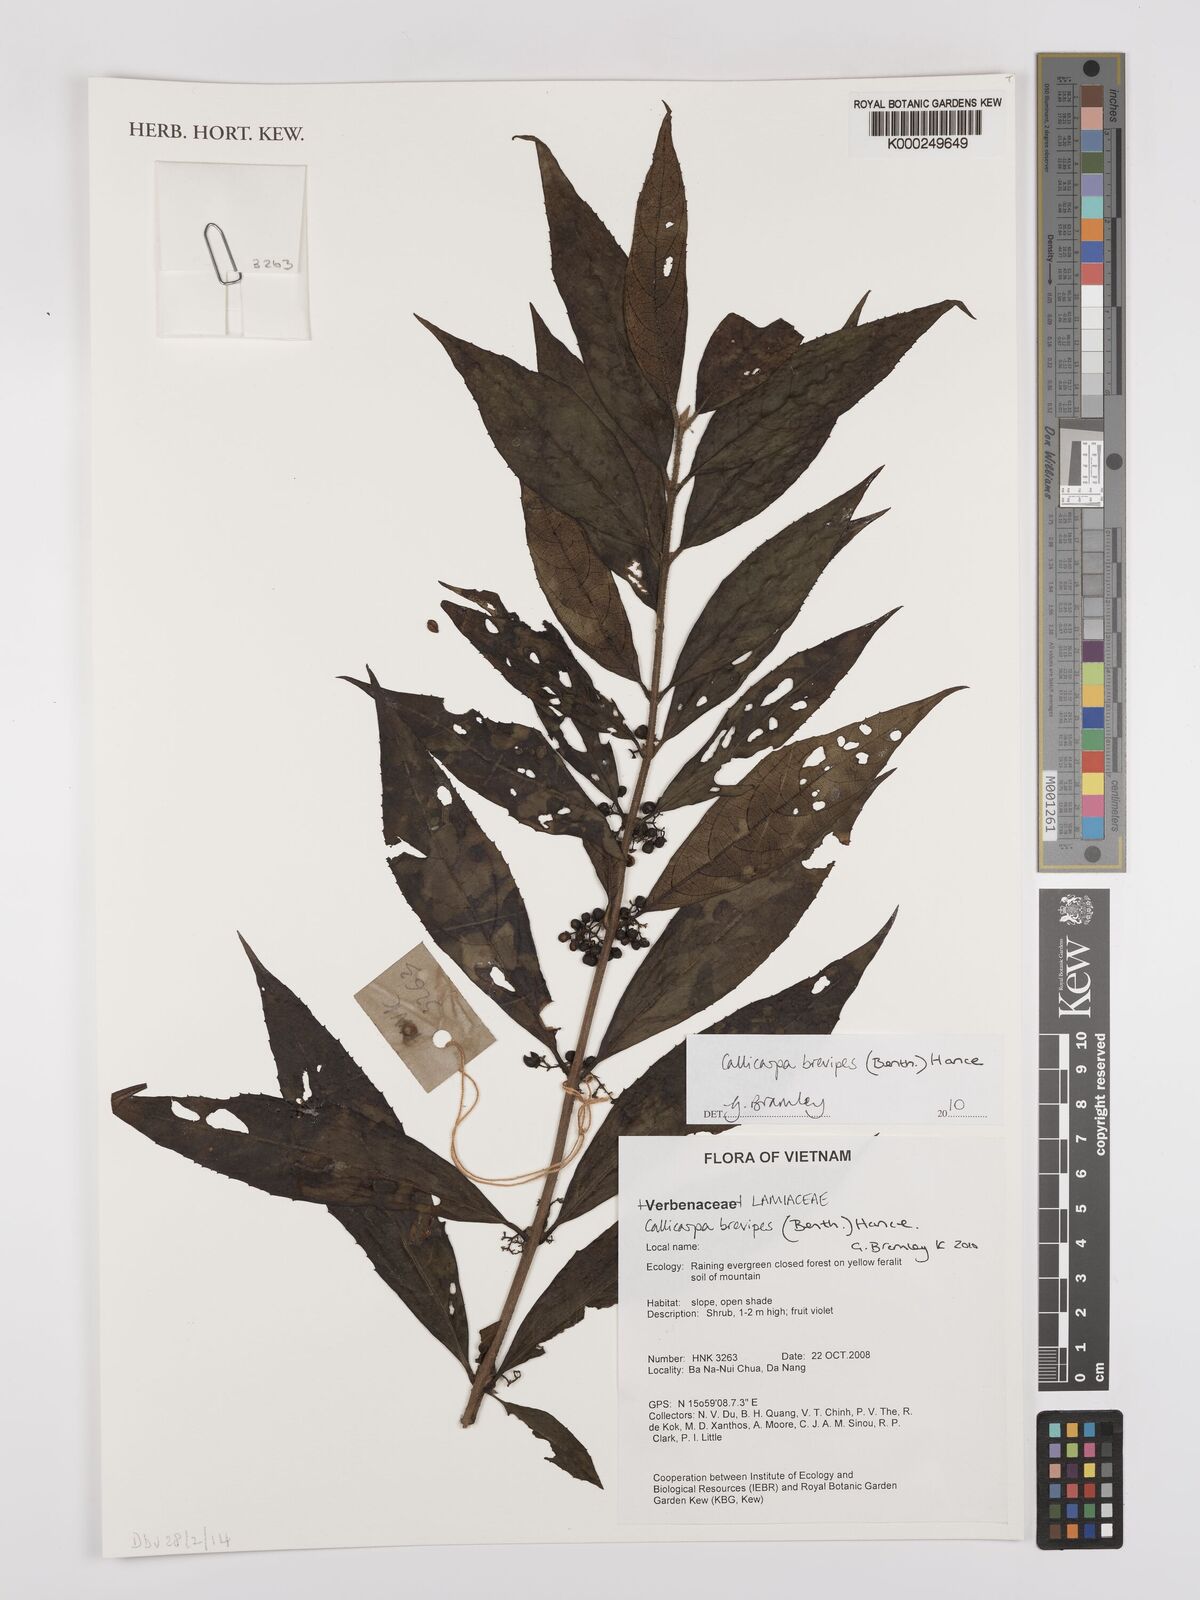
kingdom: Plantae
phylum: Tracheophyta
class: Magnoliopsida
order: Lamiales
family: Lamiaceae
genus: Callicarpa
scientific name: Callicarpa brevipes
